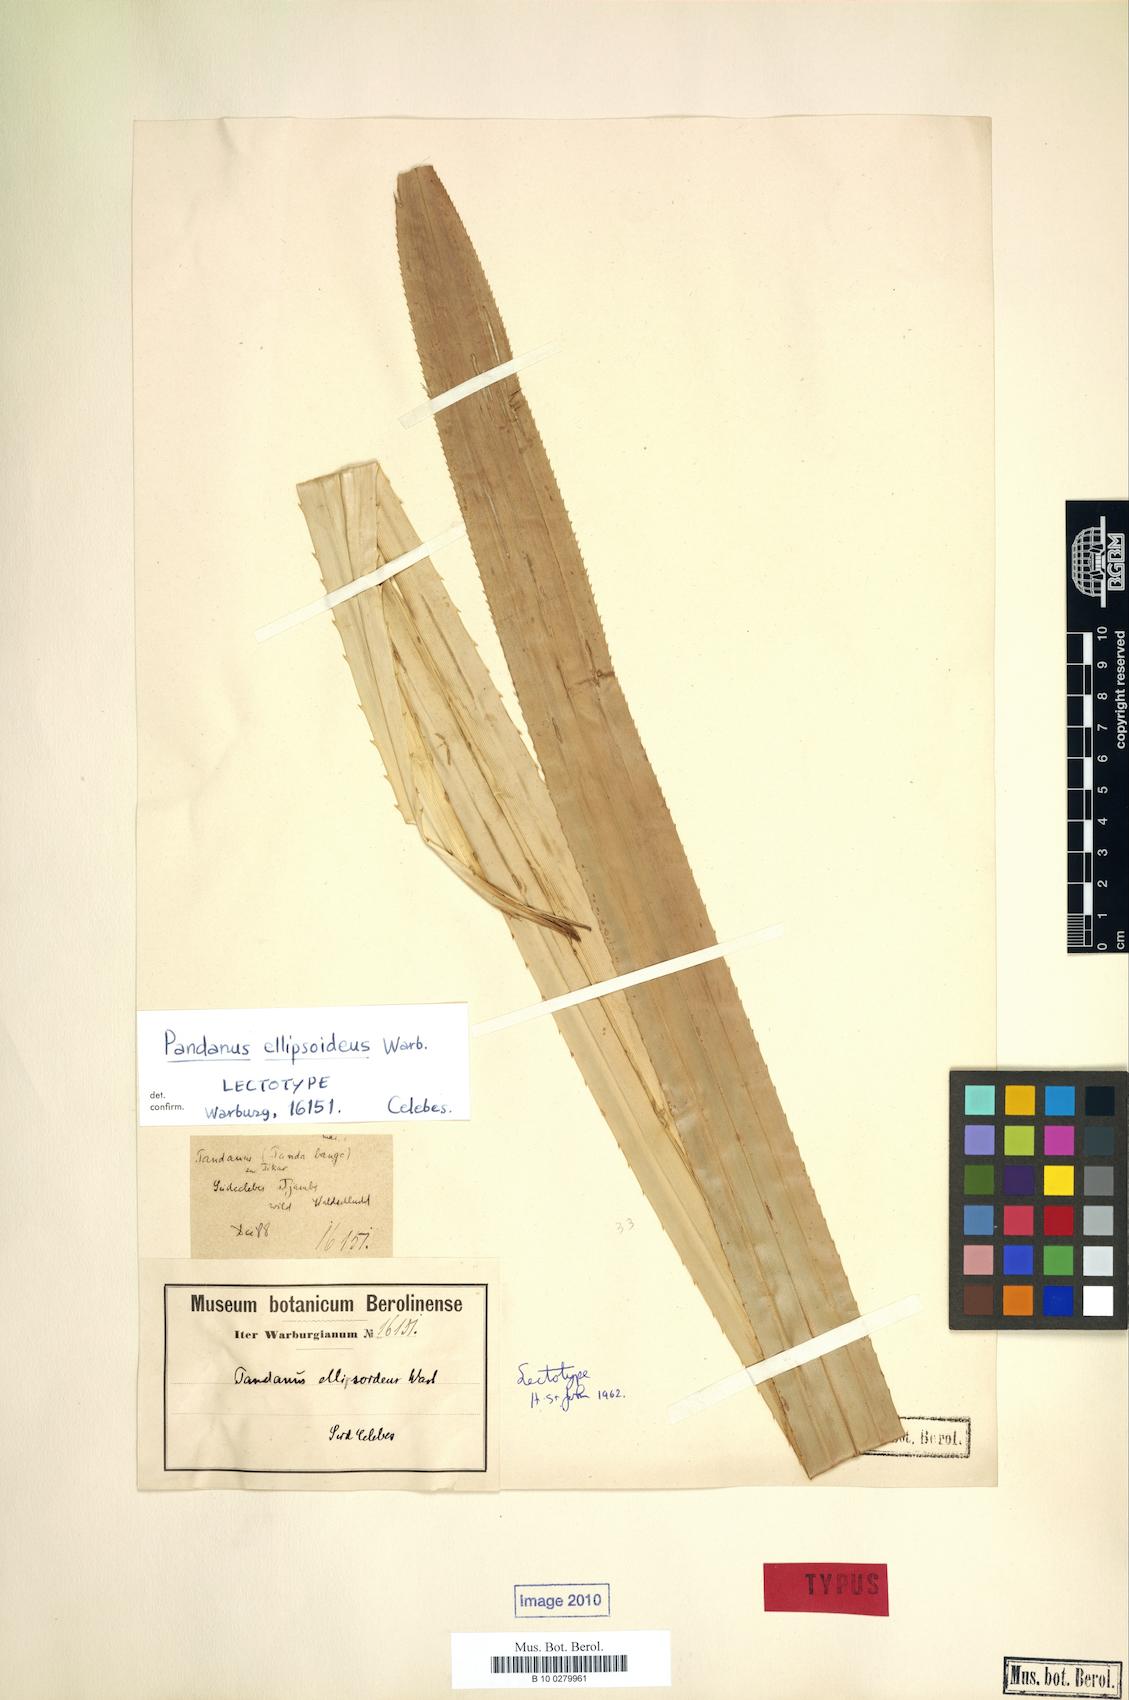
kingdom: Plantae
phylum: Tracheophyta
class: Liliopsida
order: Pandanales
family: Pandanaceae
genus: Benstonea
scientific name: Benstonea ellipsoidea
